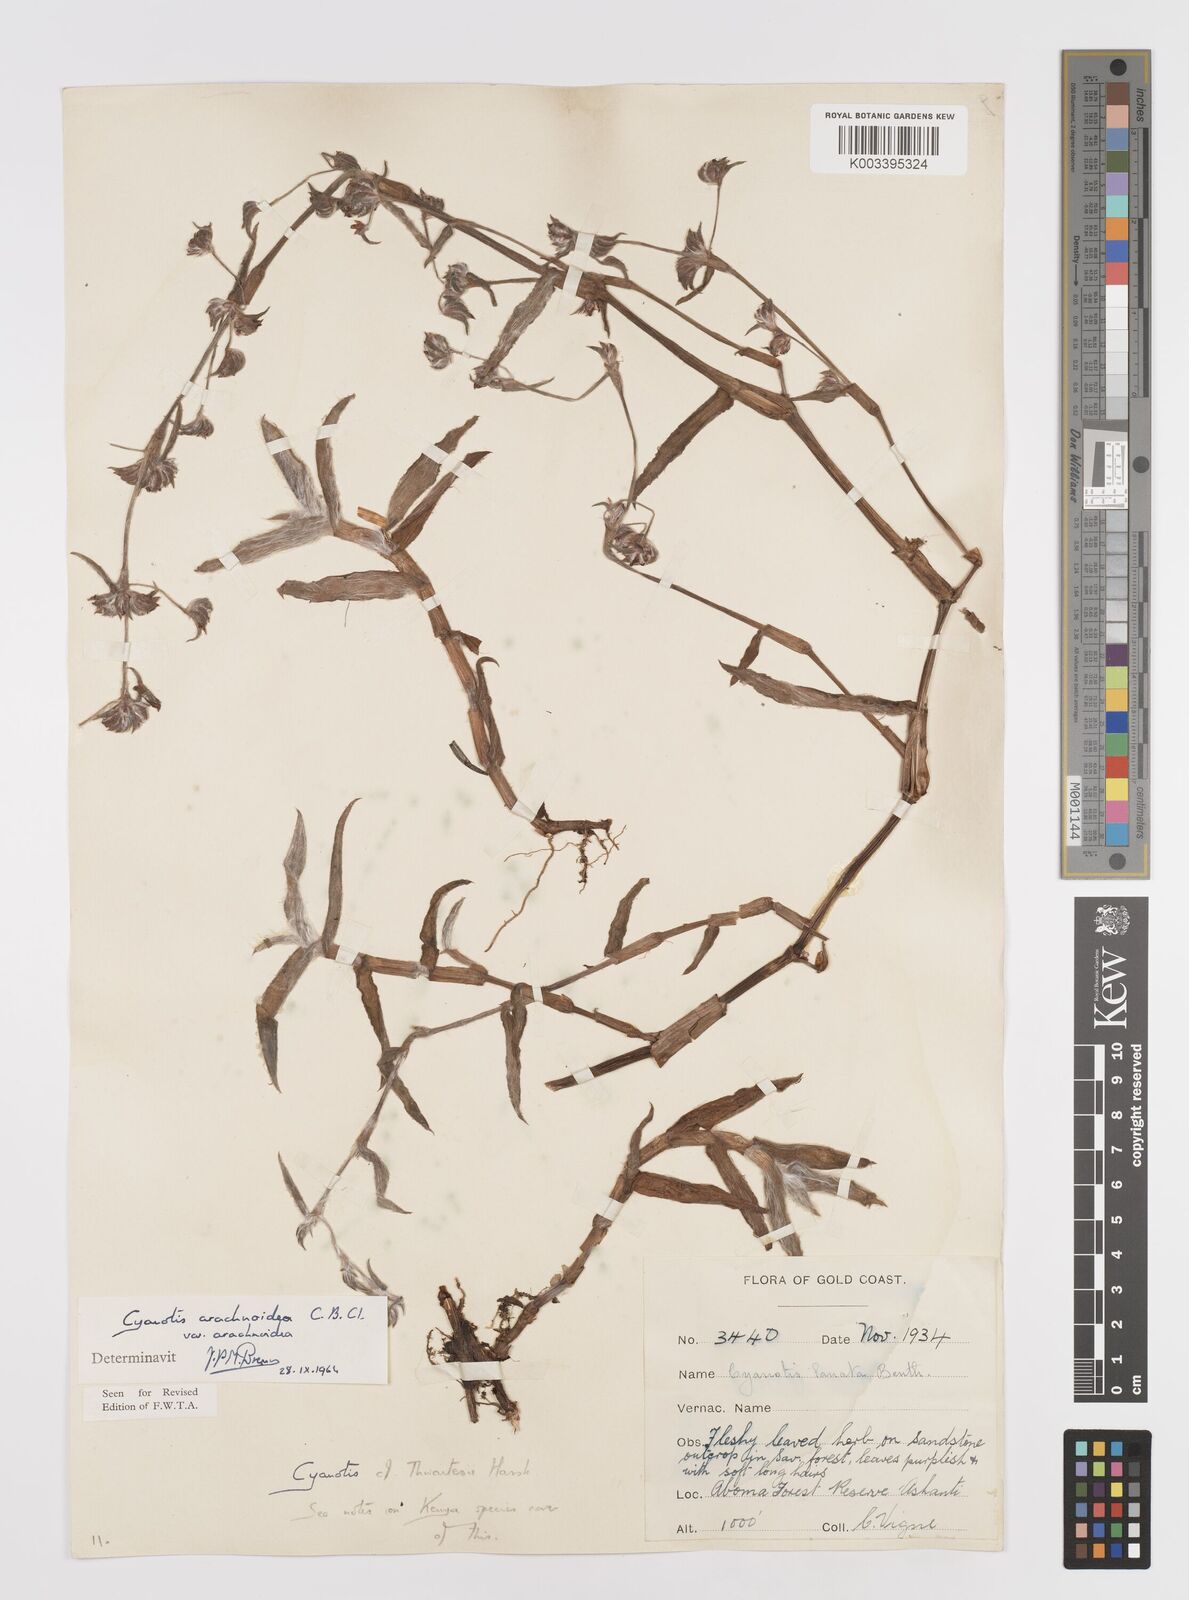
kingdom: Plantae
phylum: Tracheophyta
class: Liliopsida
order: Commelinales
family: Commelinaceae
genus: Cyanotis
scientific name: Cyanotis arachnoidea
